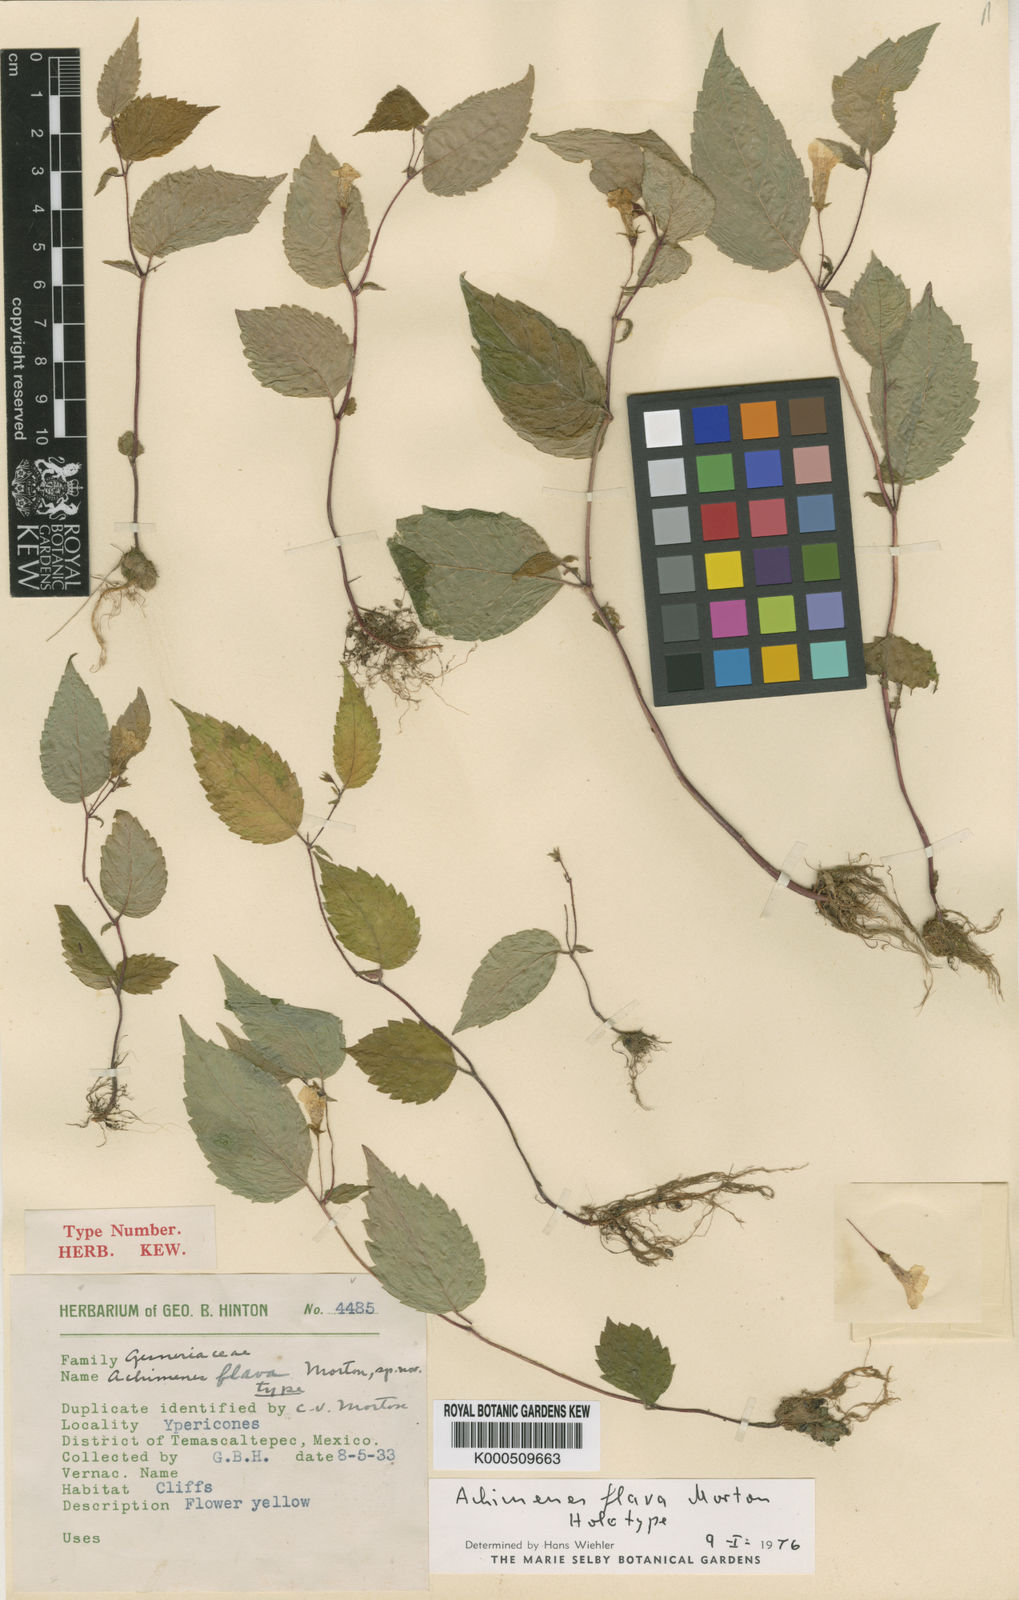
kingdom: Plantae
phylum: Tracheophyta
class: Magnoliopsida
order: Lamiales
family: Gesneriaceae
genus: Achimenes
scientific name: Achimenes flava
